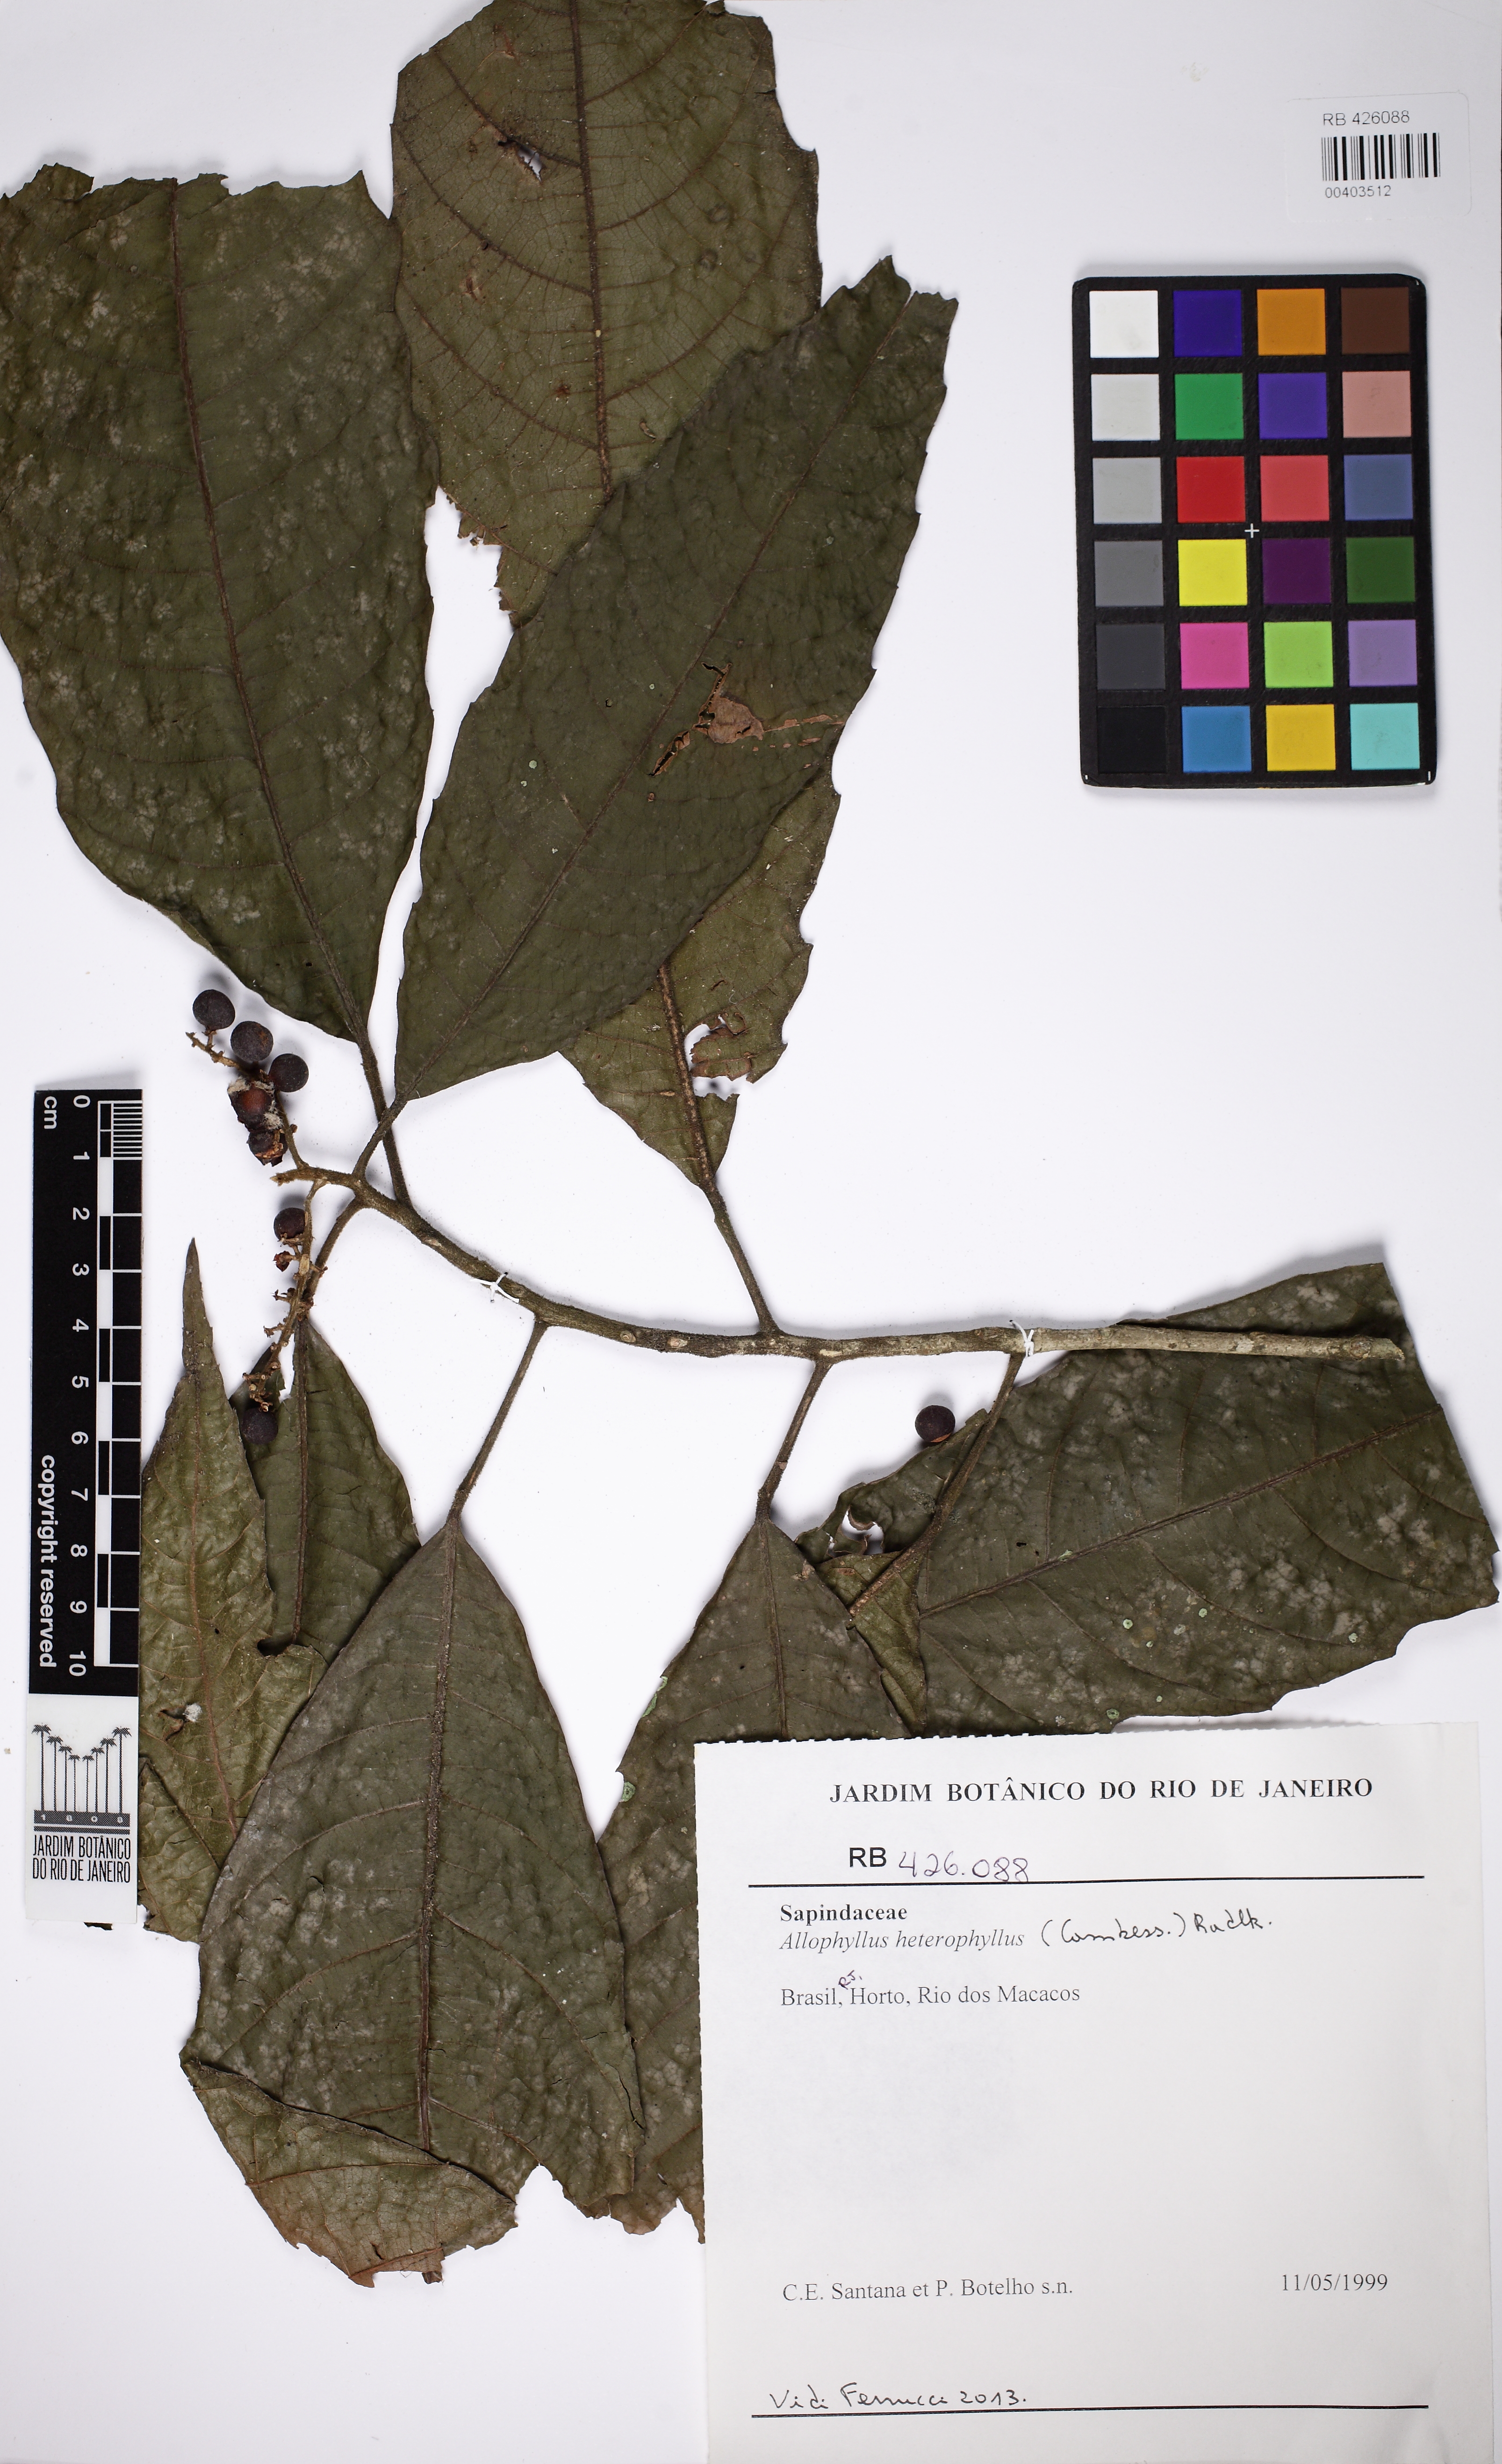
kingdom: Plantae
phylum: Tracheophyta
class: Magnoliopsida
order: Sapindales
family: Sapindaceae
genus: Allophylus
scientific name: Allophylus heterophyllus
